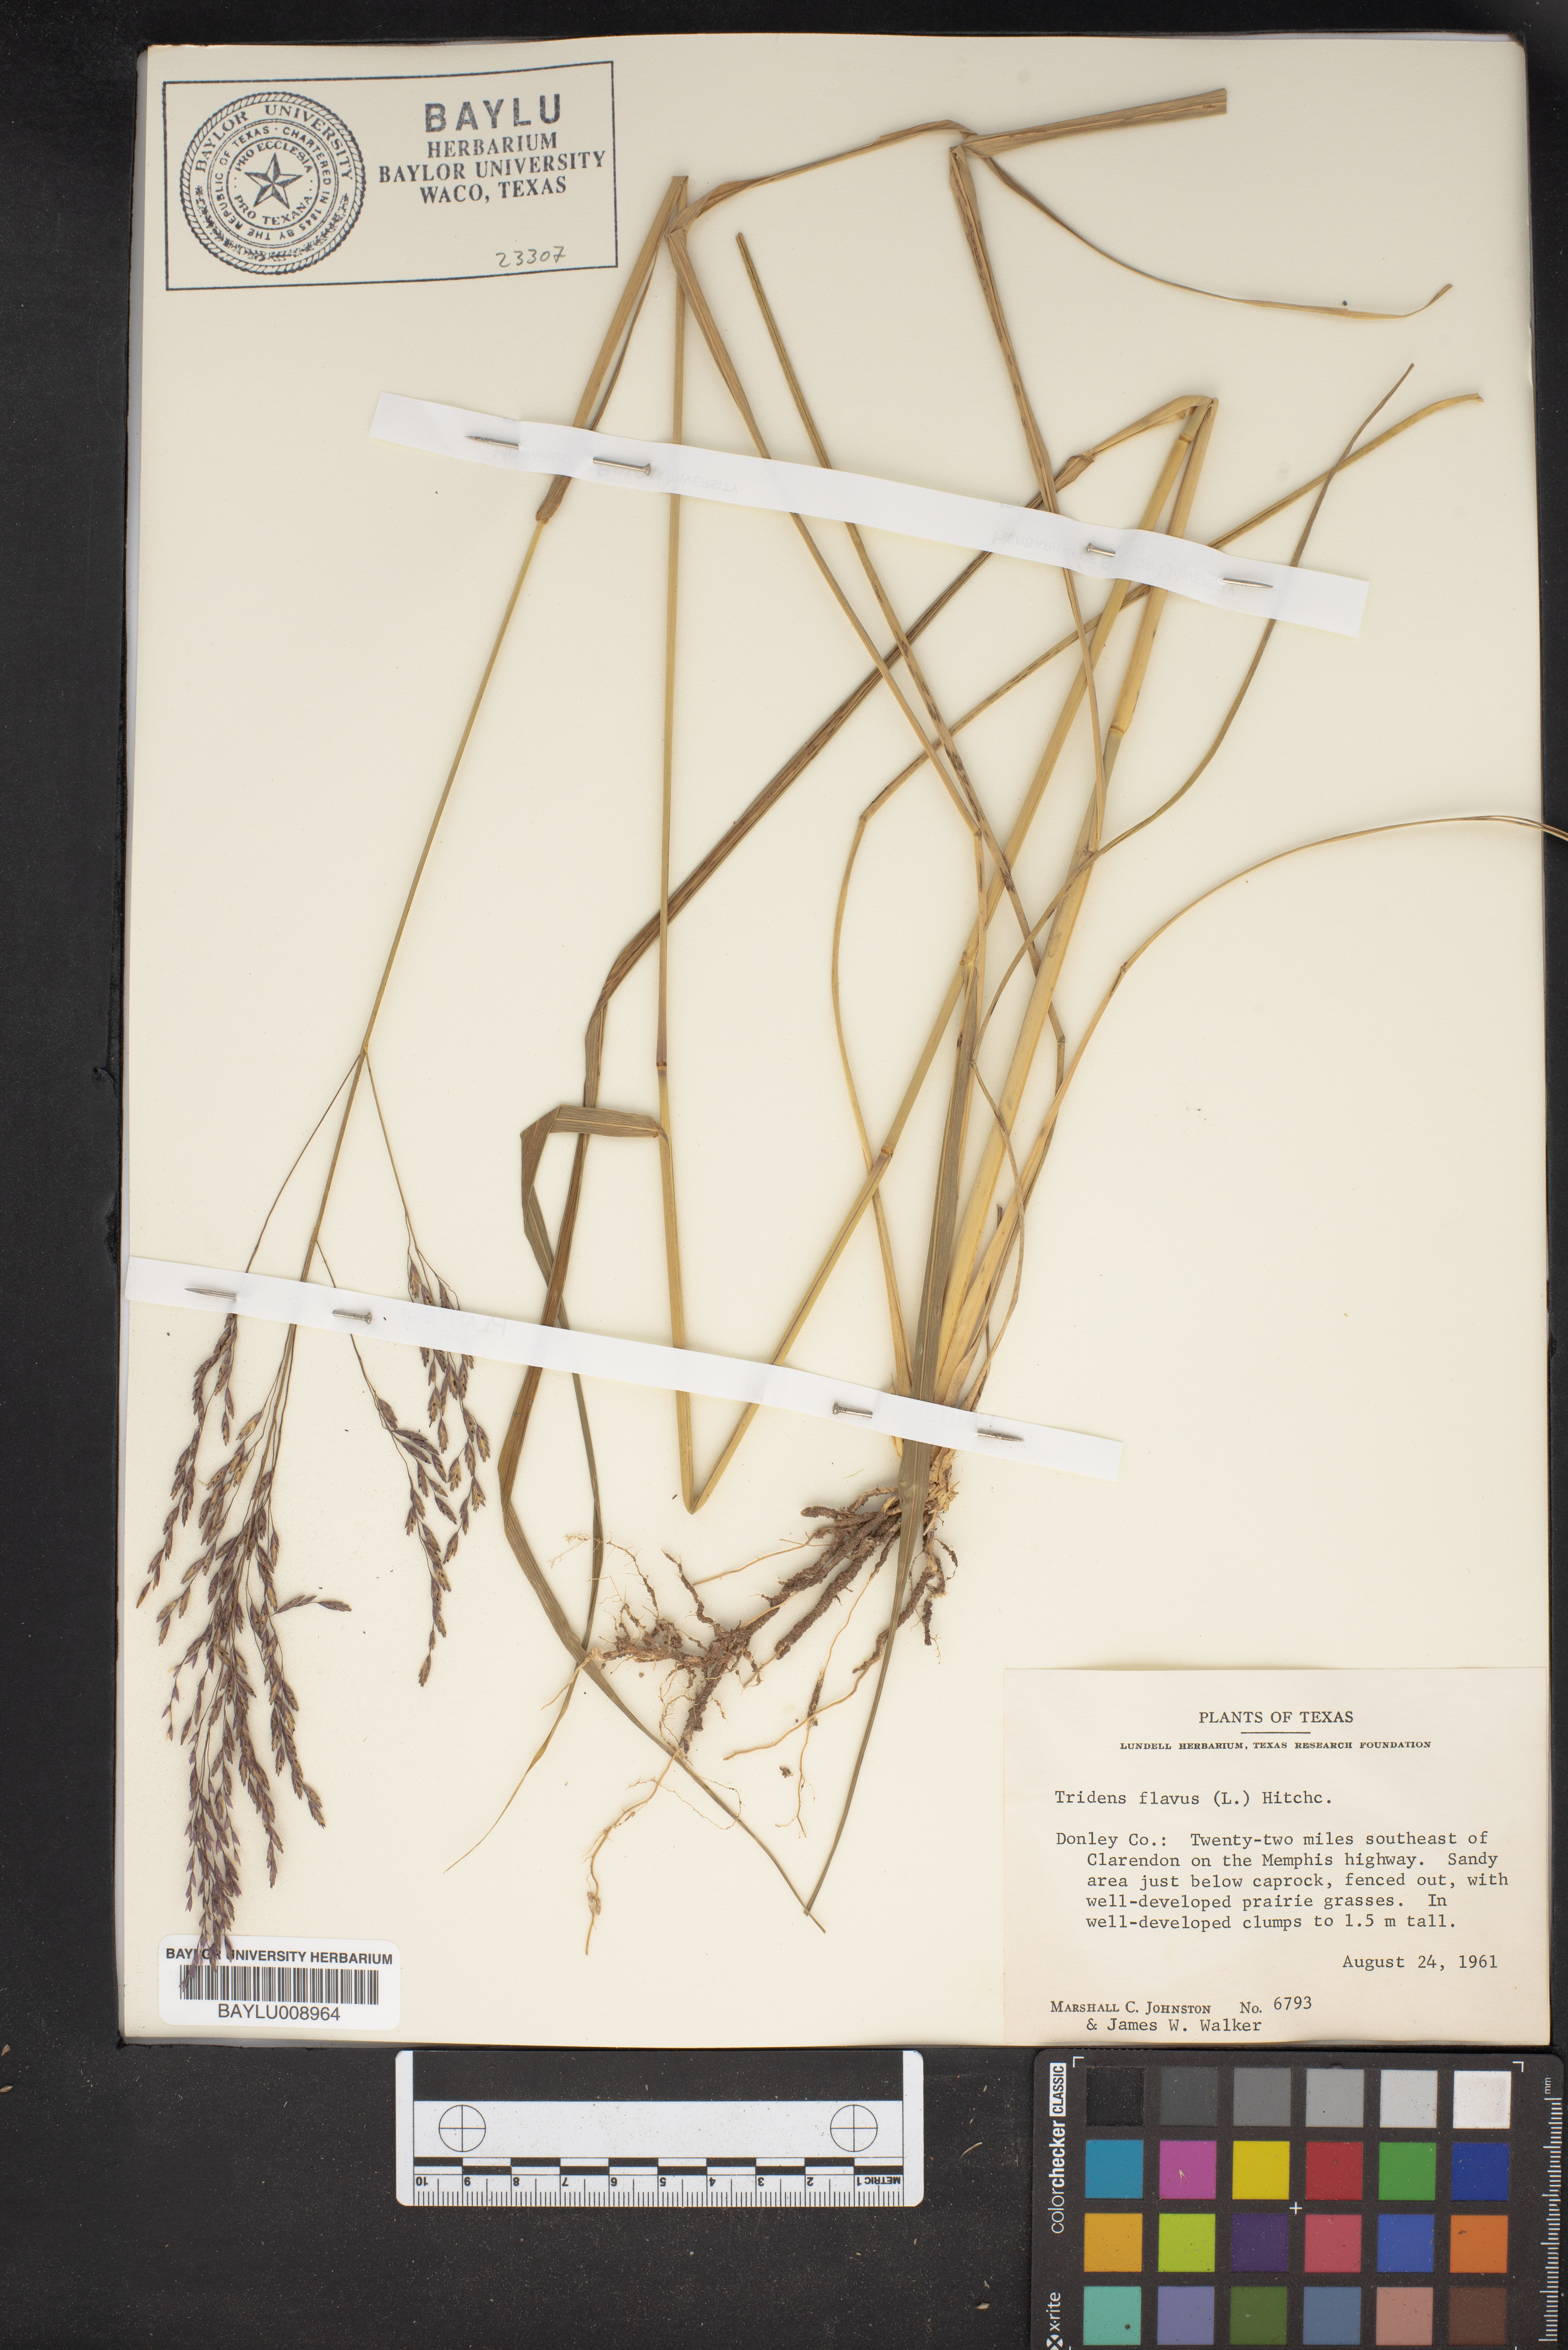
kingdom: Plantae
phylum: Tracheophyta
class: Liliopsida
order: Poales
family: Poaceae
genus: Tridens
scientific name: Tridens flavus
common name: Purpletop
